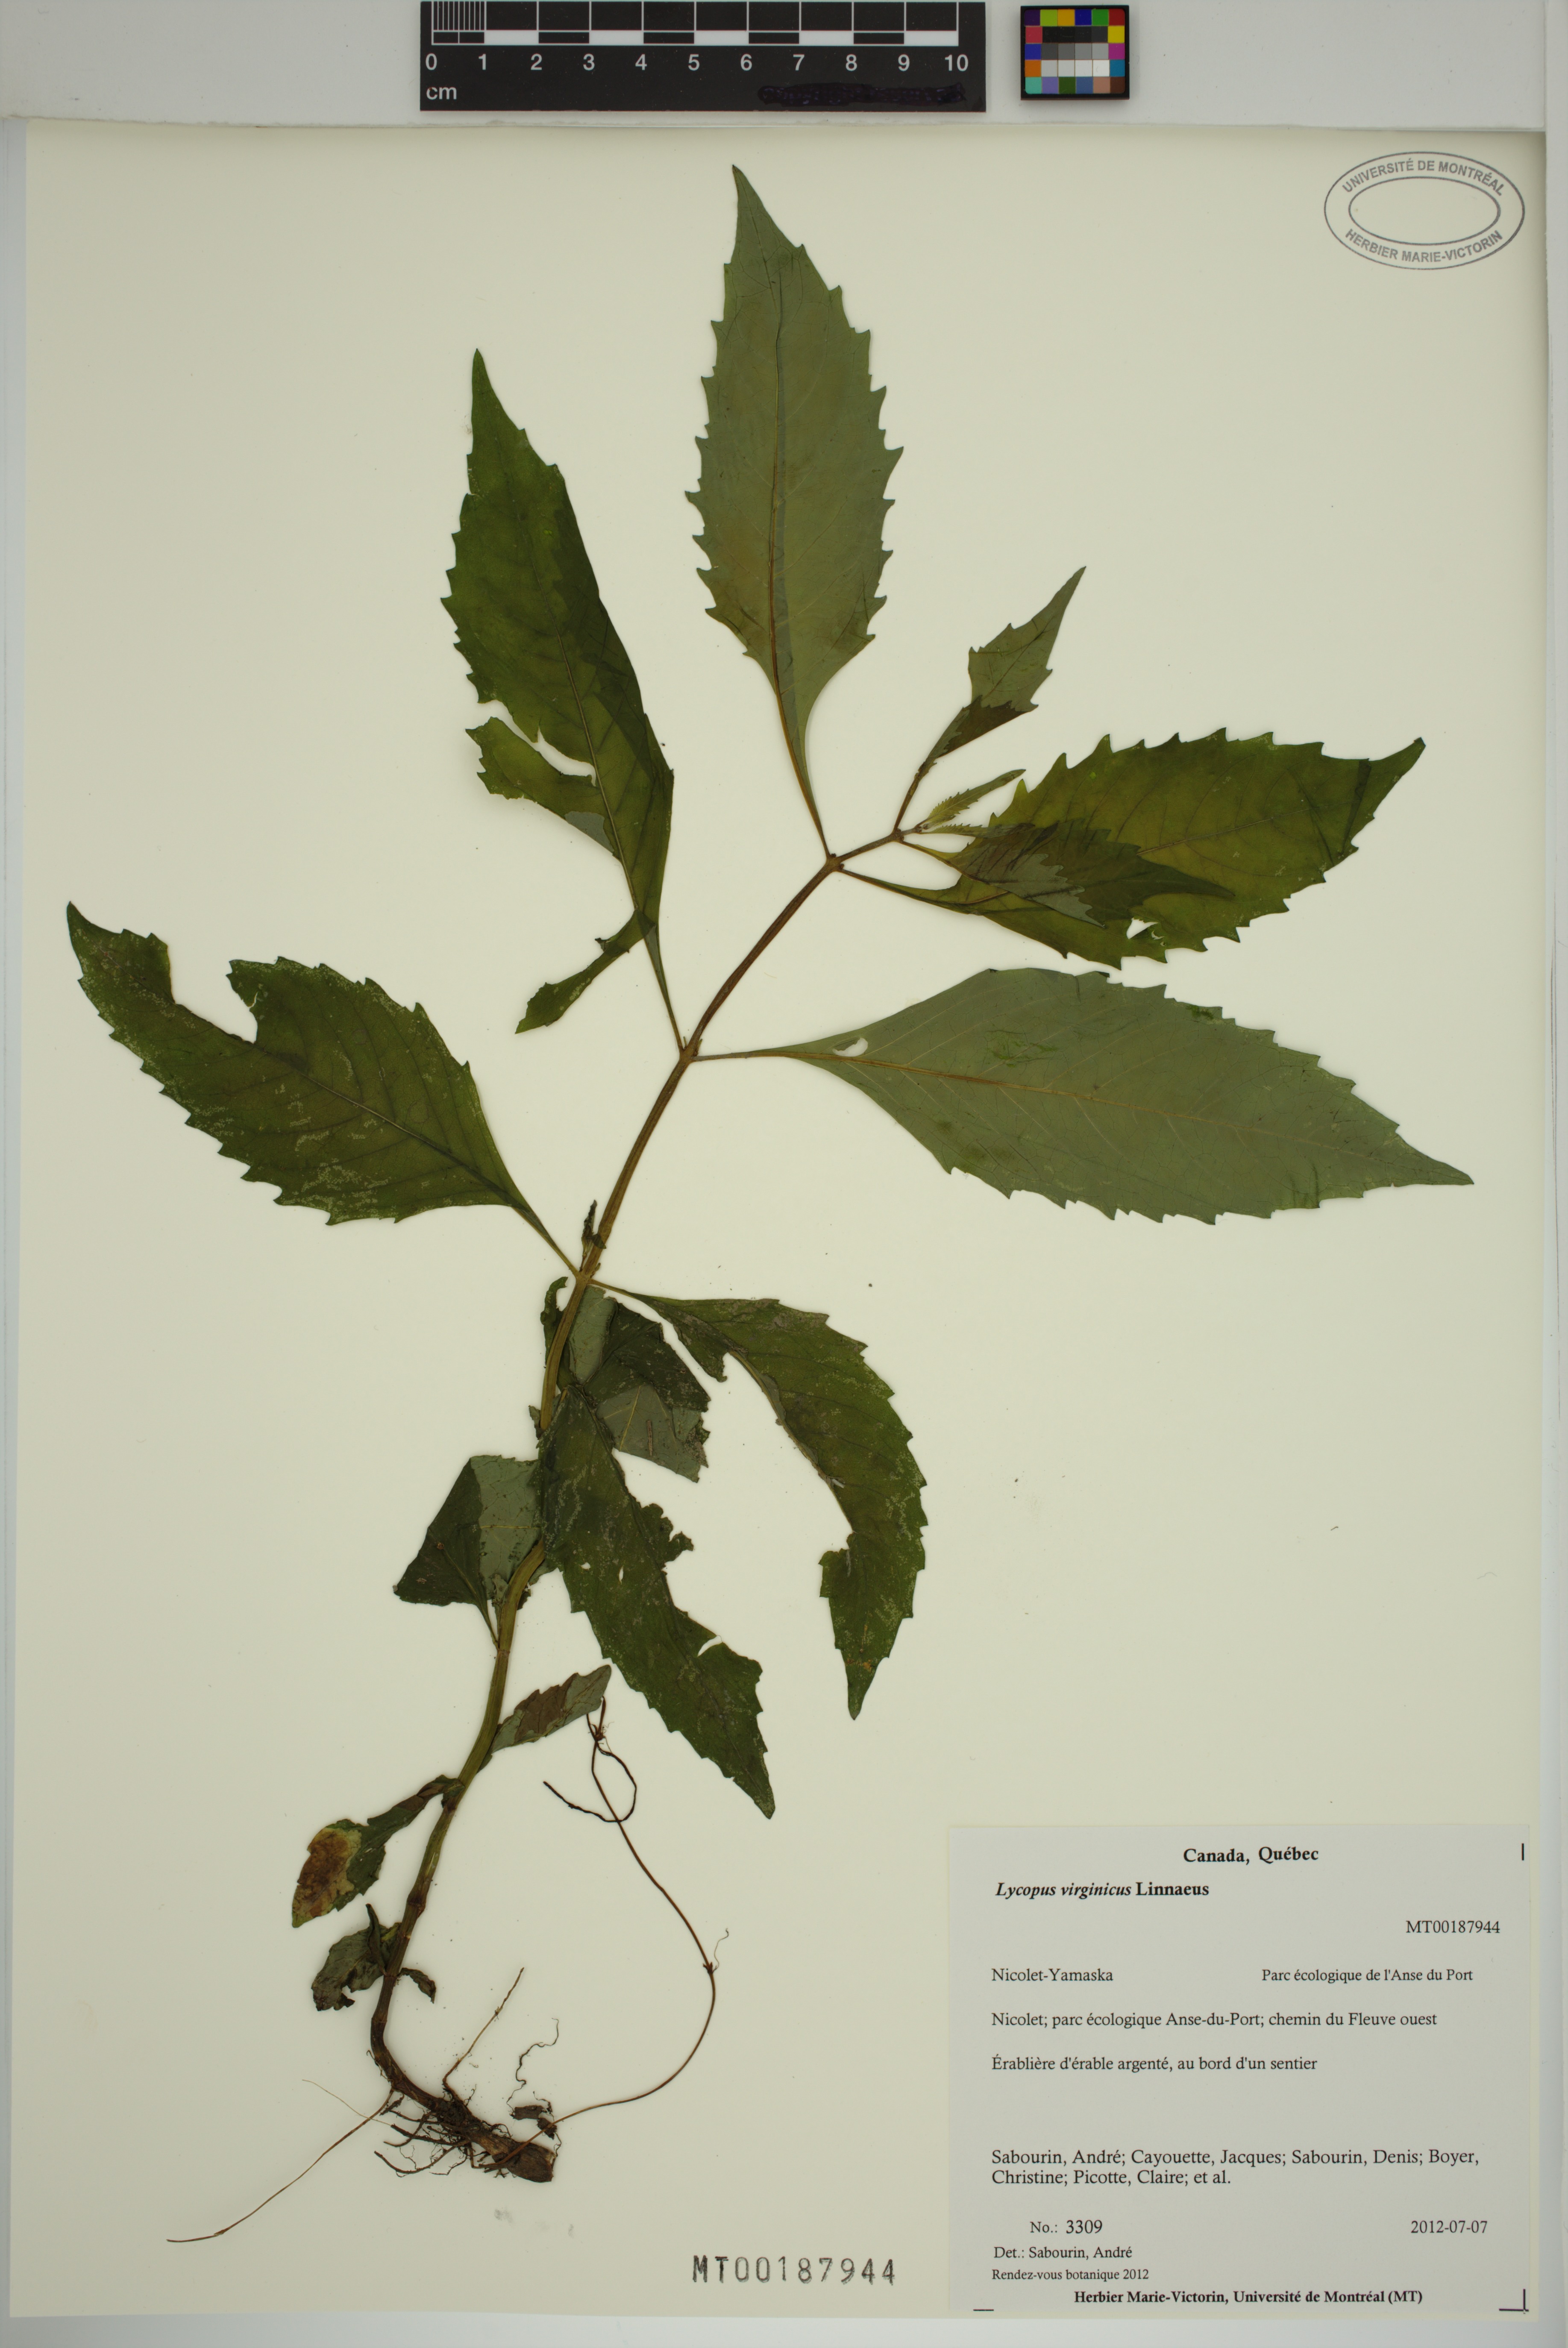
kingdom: Plantae
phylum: Tracheophyta
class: Magnoliopsida
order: Lamiales
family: Lamiaceae
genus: Lycopus
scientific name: Lycopus virginicus
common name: Bugleweed
